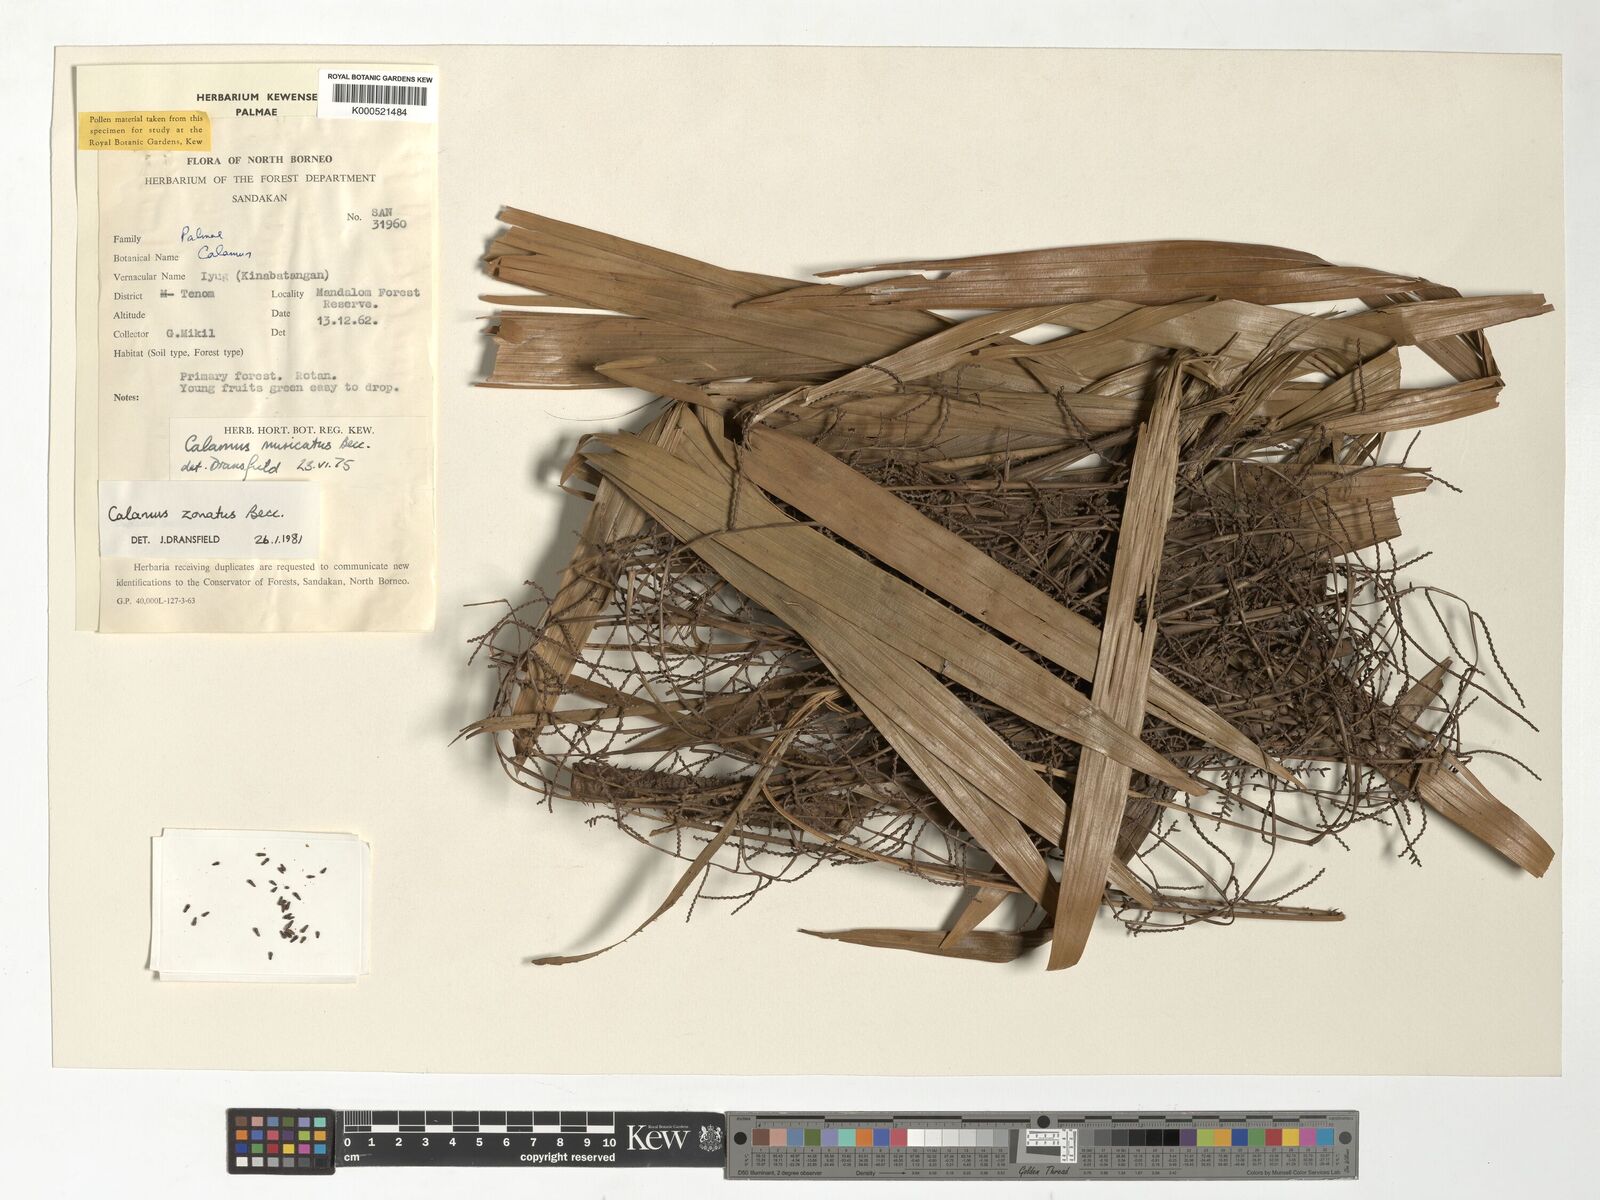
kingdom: Plantae
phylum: Tracheophyta
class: Liliopsida
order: Arecales
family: Arecaceae
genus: Calamus
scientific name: Calamus zonatus
